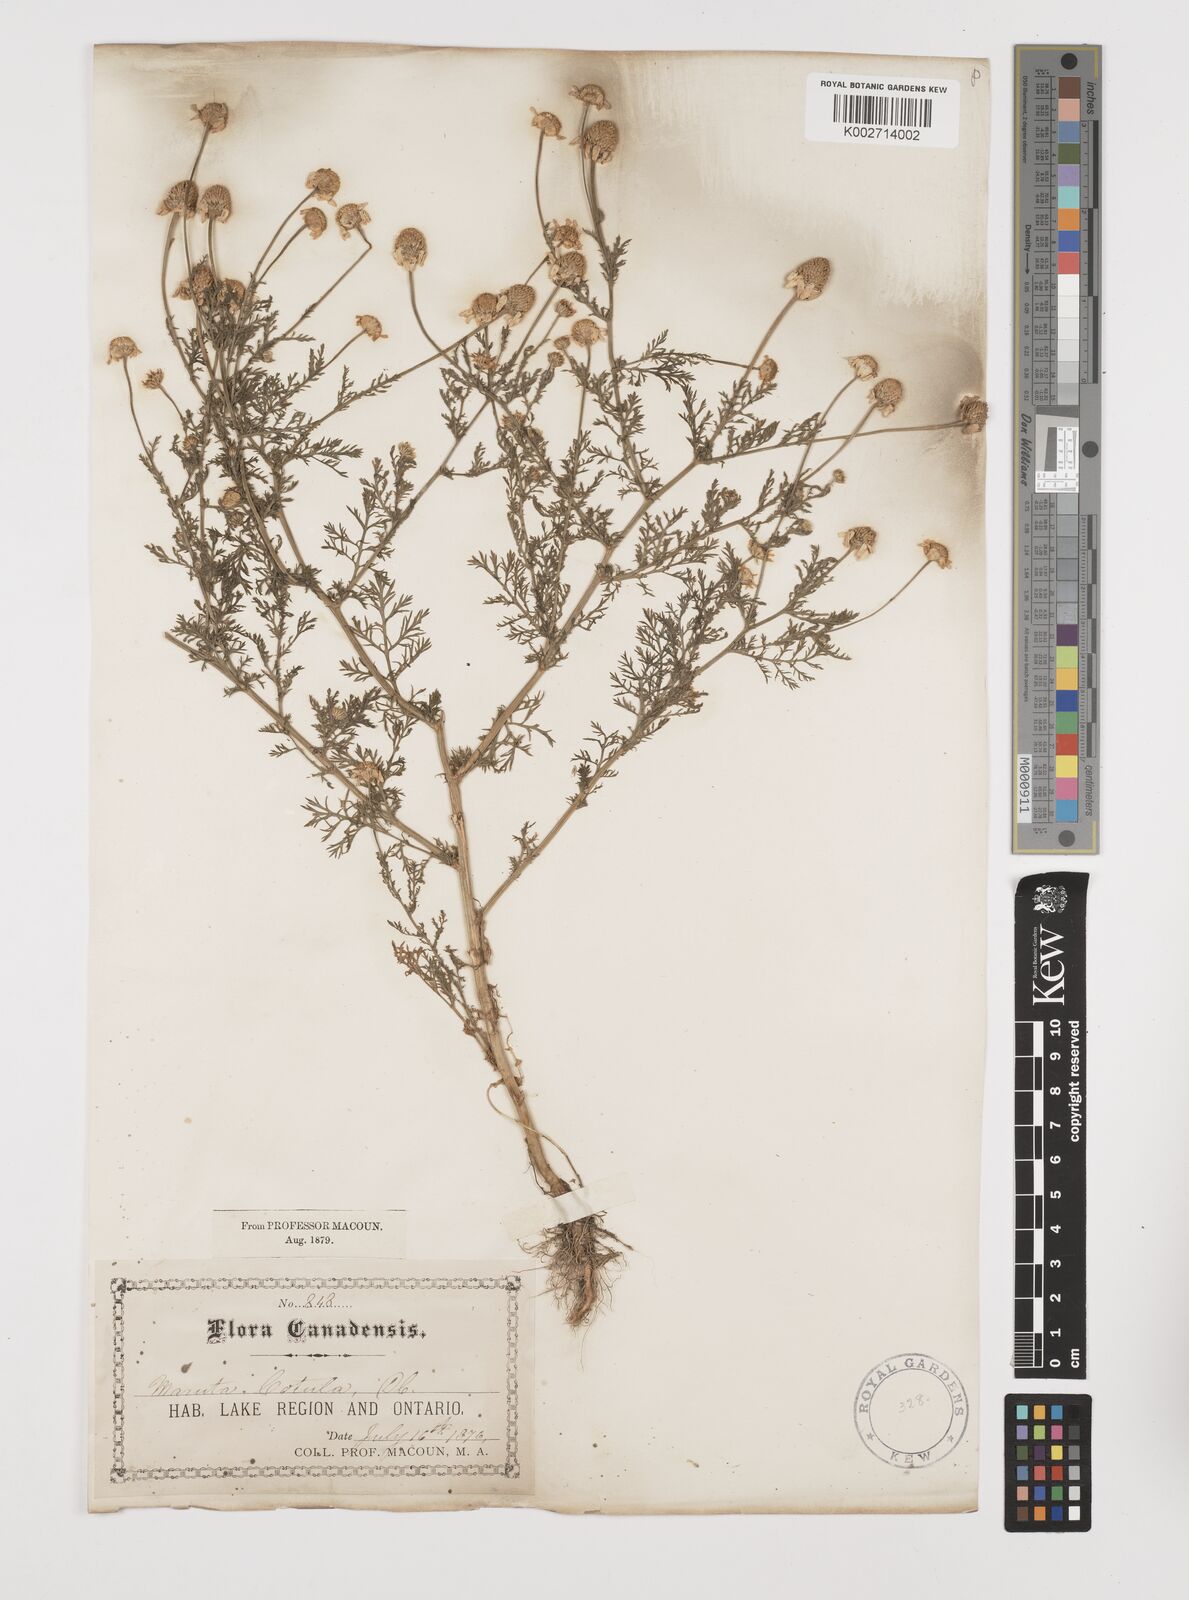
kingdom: Plantae
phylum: Tracheophyta
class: Magnoliopsida
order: Asterales
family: Asteraceae
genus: Anthemis
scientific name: Anthemis cotula
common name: Stinking chamomile
